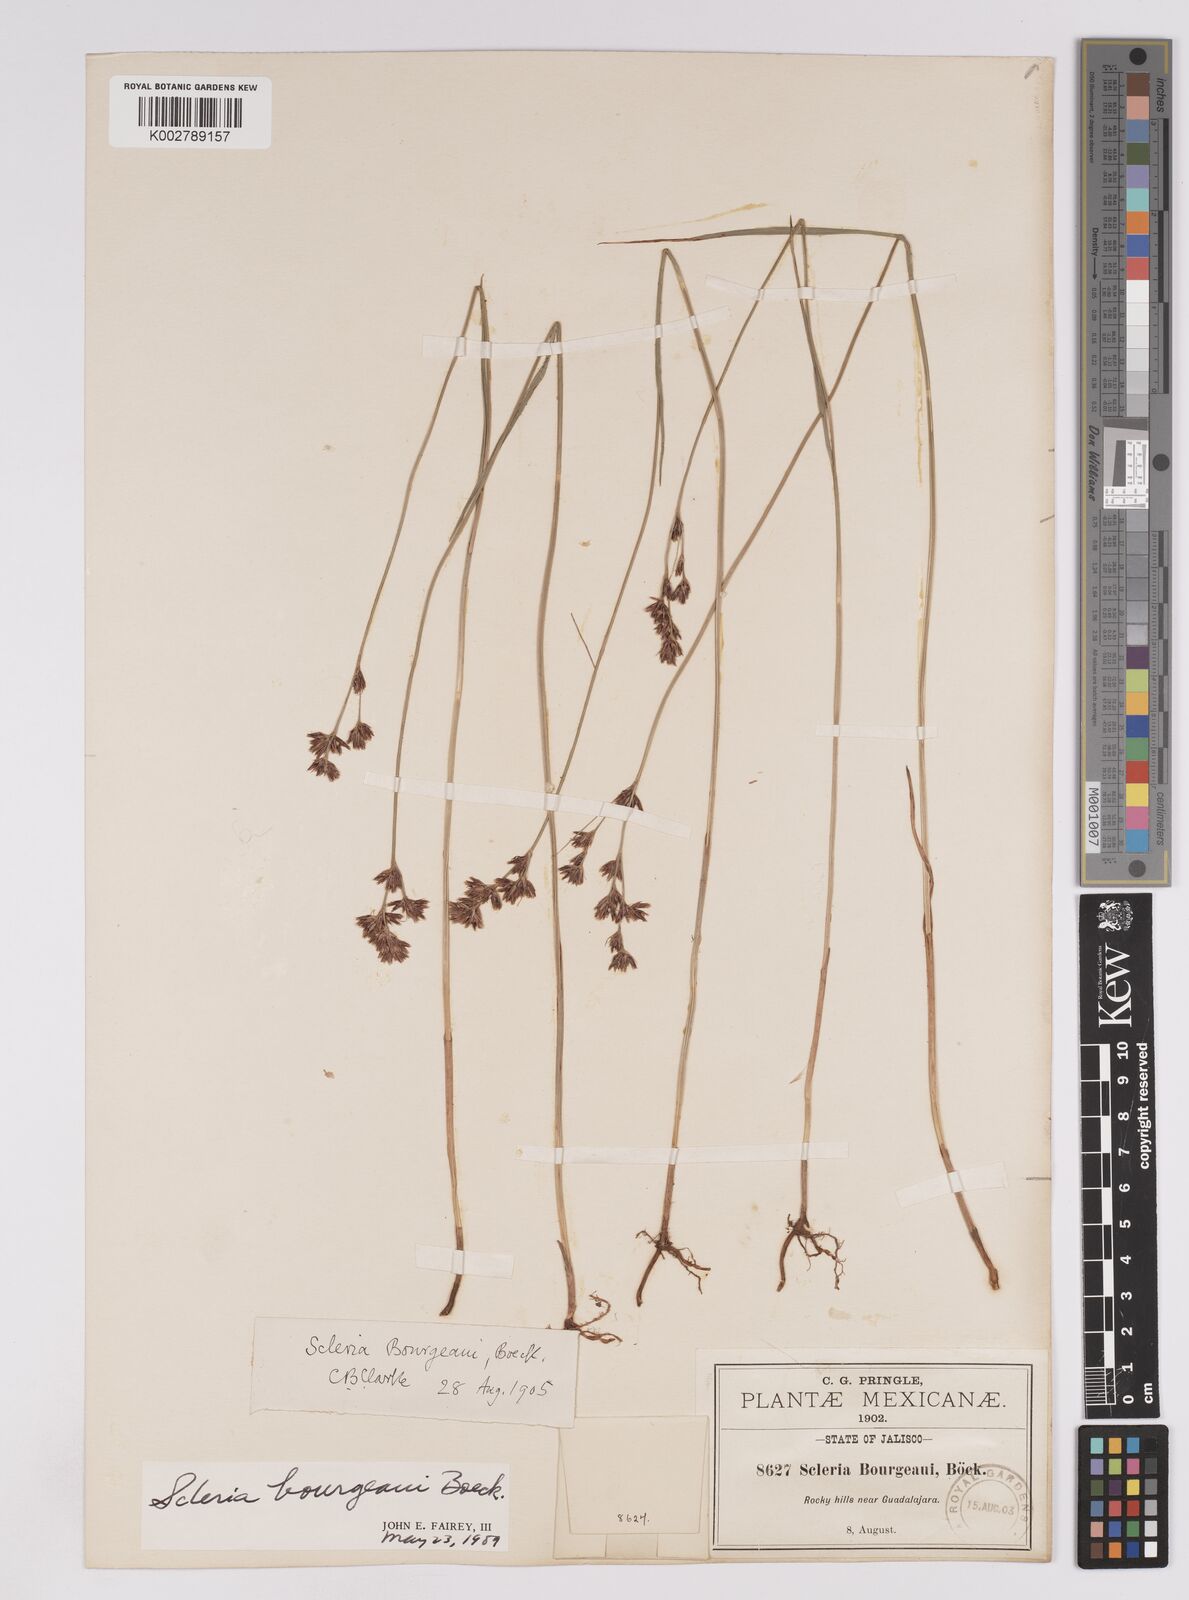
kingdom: Plantae
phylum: Tracheophyta
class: Liliopsida
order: Poales
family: Cyperaceae
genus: Scleria
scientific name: Scleria bourgeaui
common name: Bourgeau's nutrush
